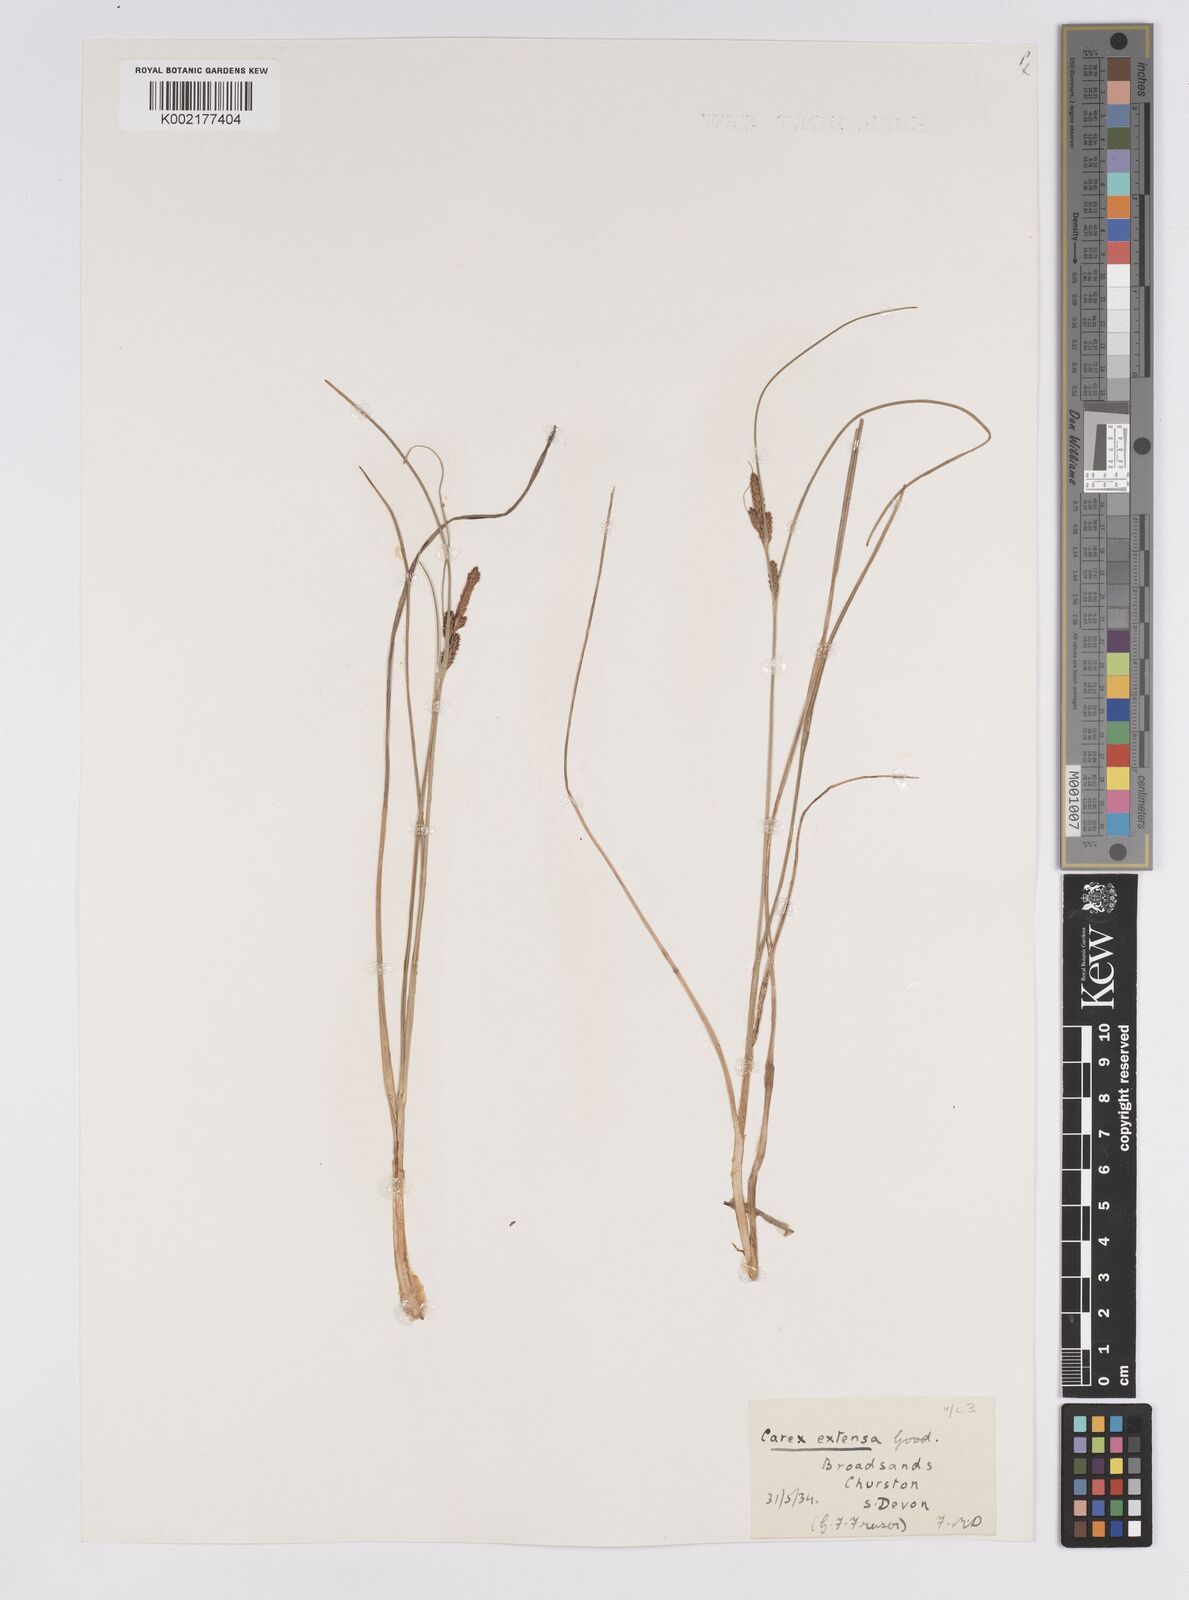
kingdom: Plantae
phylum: Tracheophyta
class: Liliopsida
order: Poales
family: Cyperaceae
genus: Carex
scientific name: Carex extensa
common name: Long-bracted sedge
